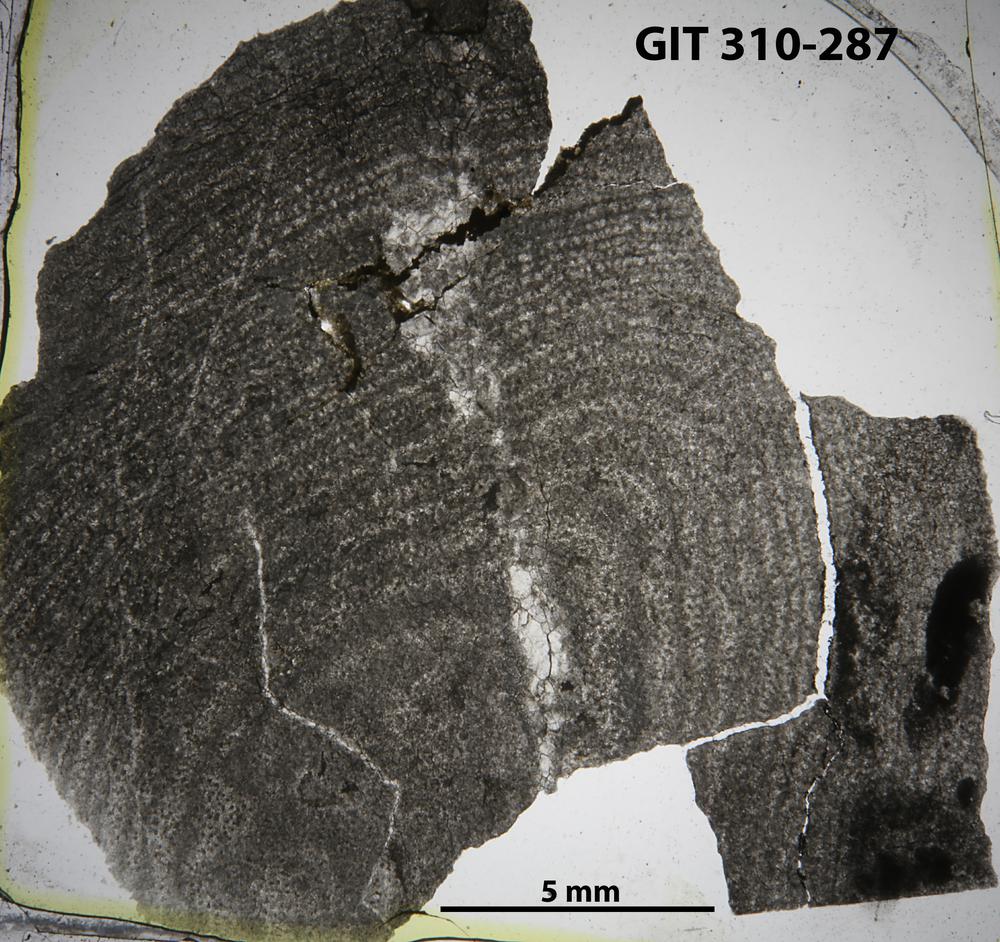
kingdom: Animalia
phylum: Porifera
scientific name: Porifera
